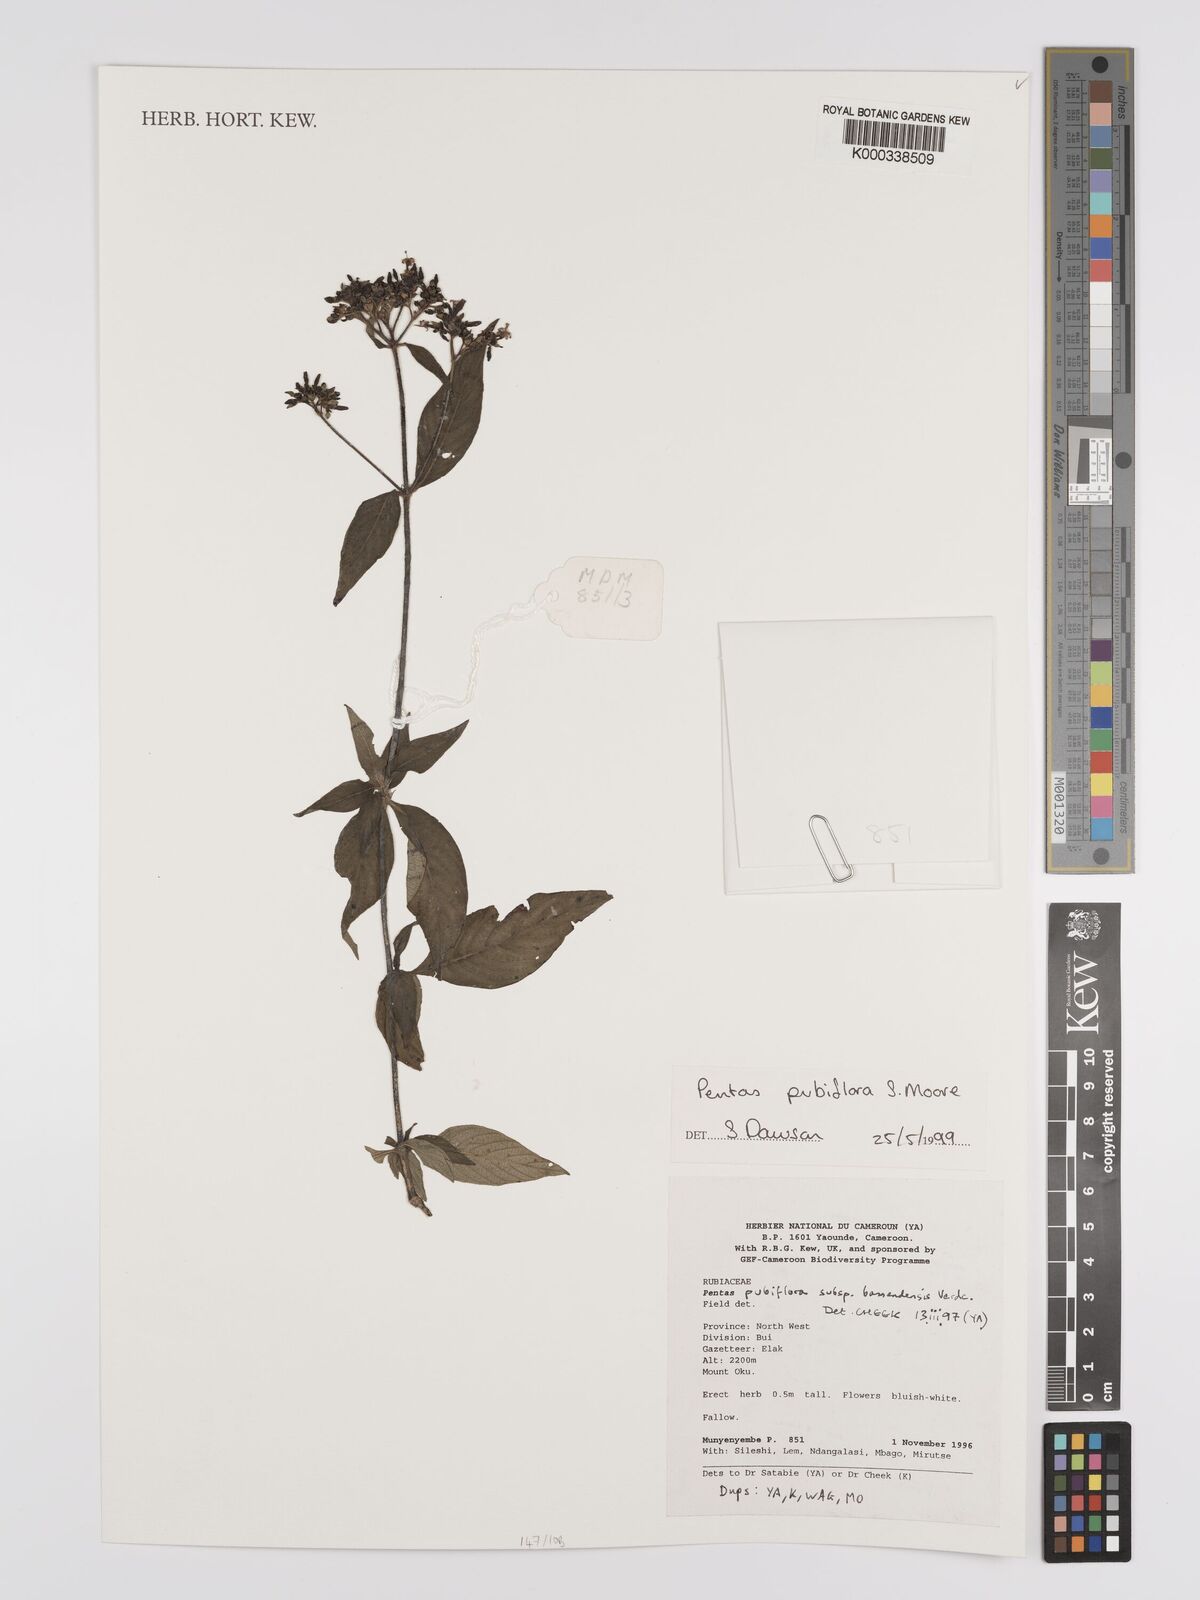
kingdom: Plantae
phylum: Tracheophyta
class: Magnoliopsida
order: Gentianales
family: Rubiaceae
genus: Pentas
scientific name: Pentas pubiflora
